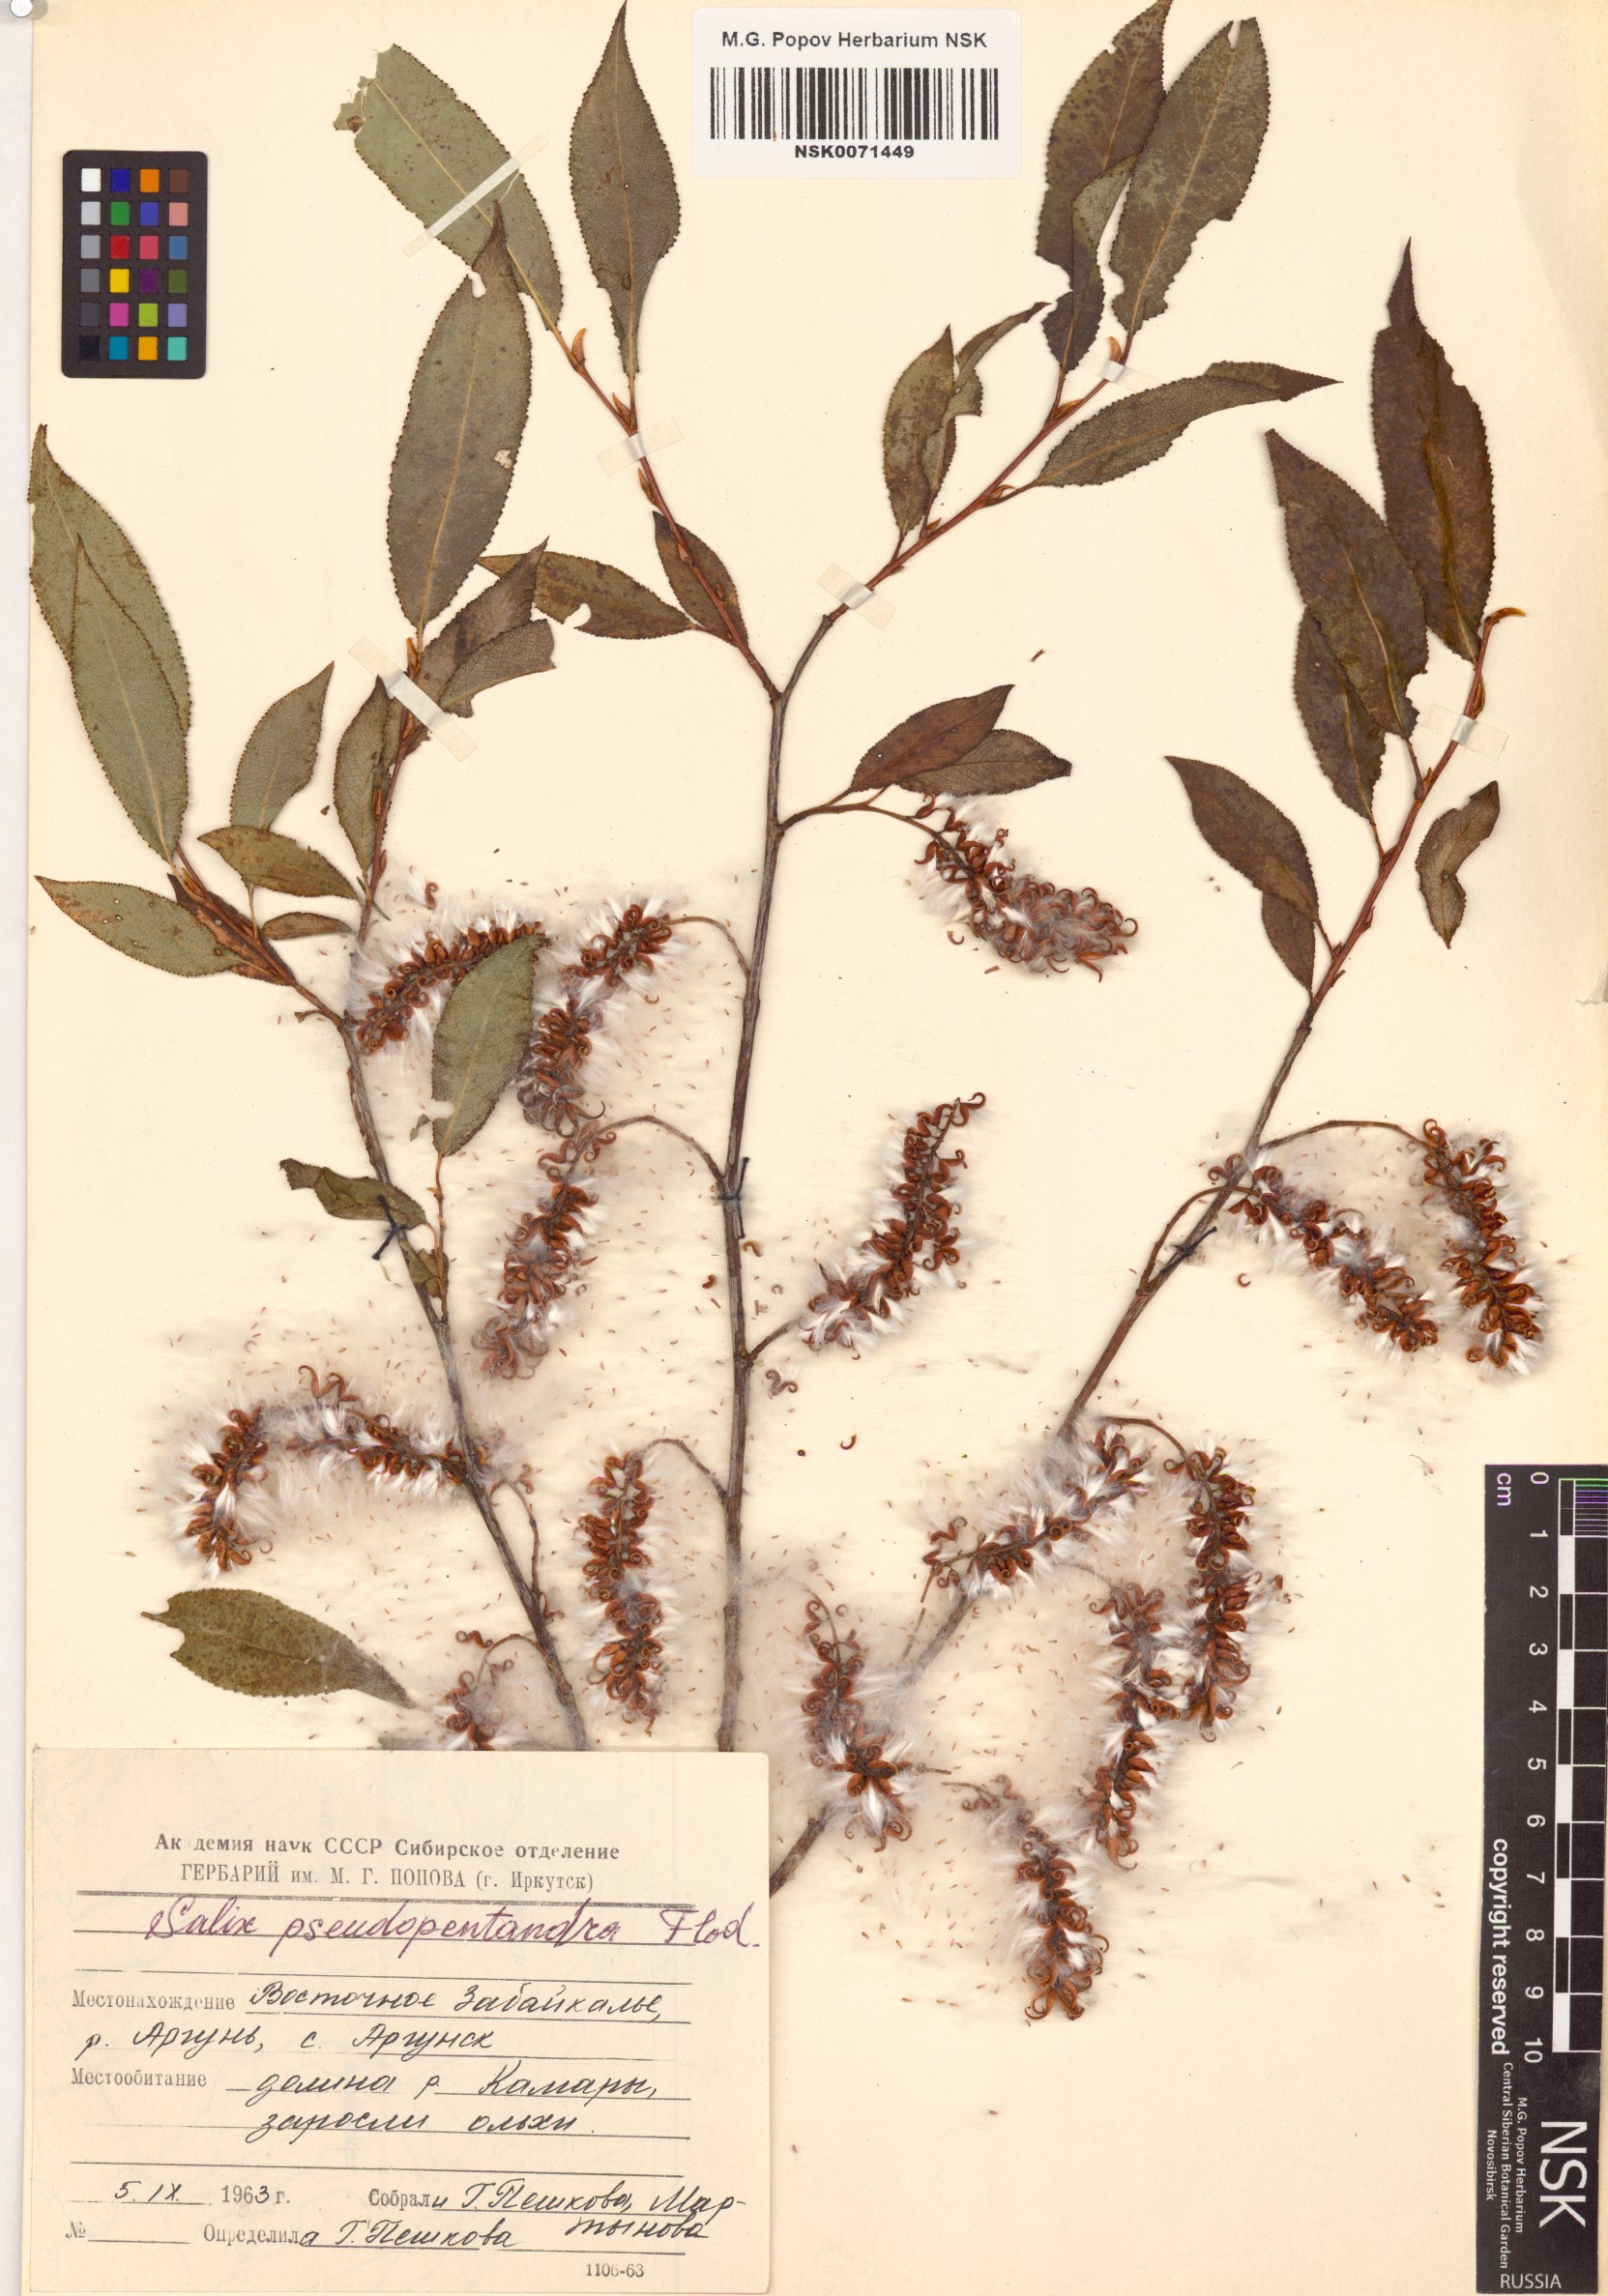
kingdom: Plantae
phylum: Tracheophyta
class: Magnoliopsida
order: Malpighiales
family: Salicaceae
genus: Salix
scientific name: Salix pseudopentandra
